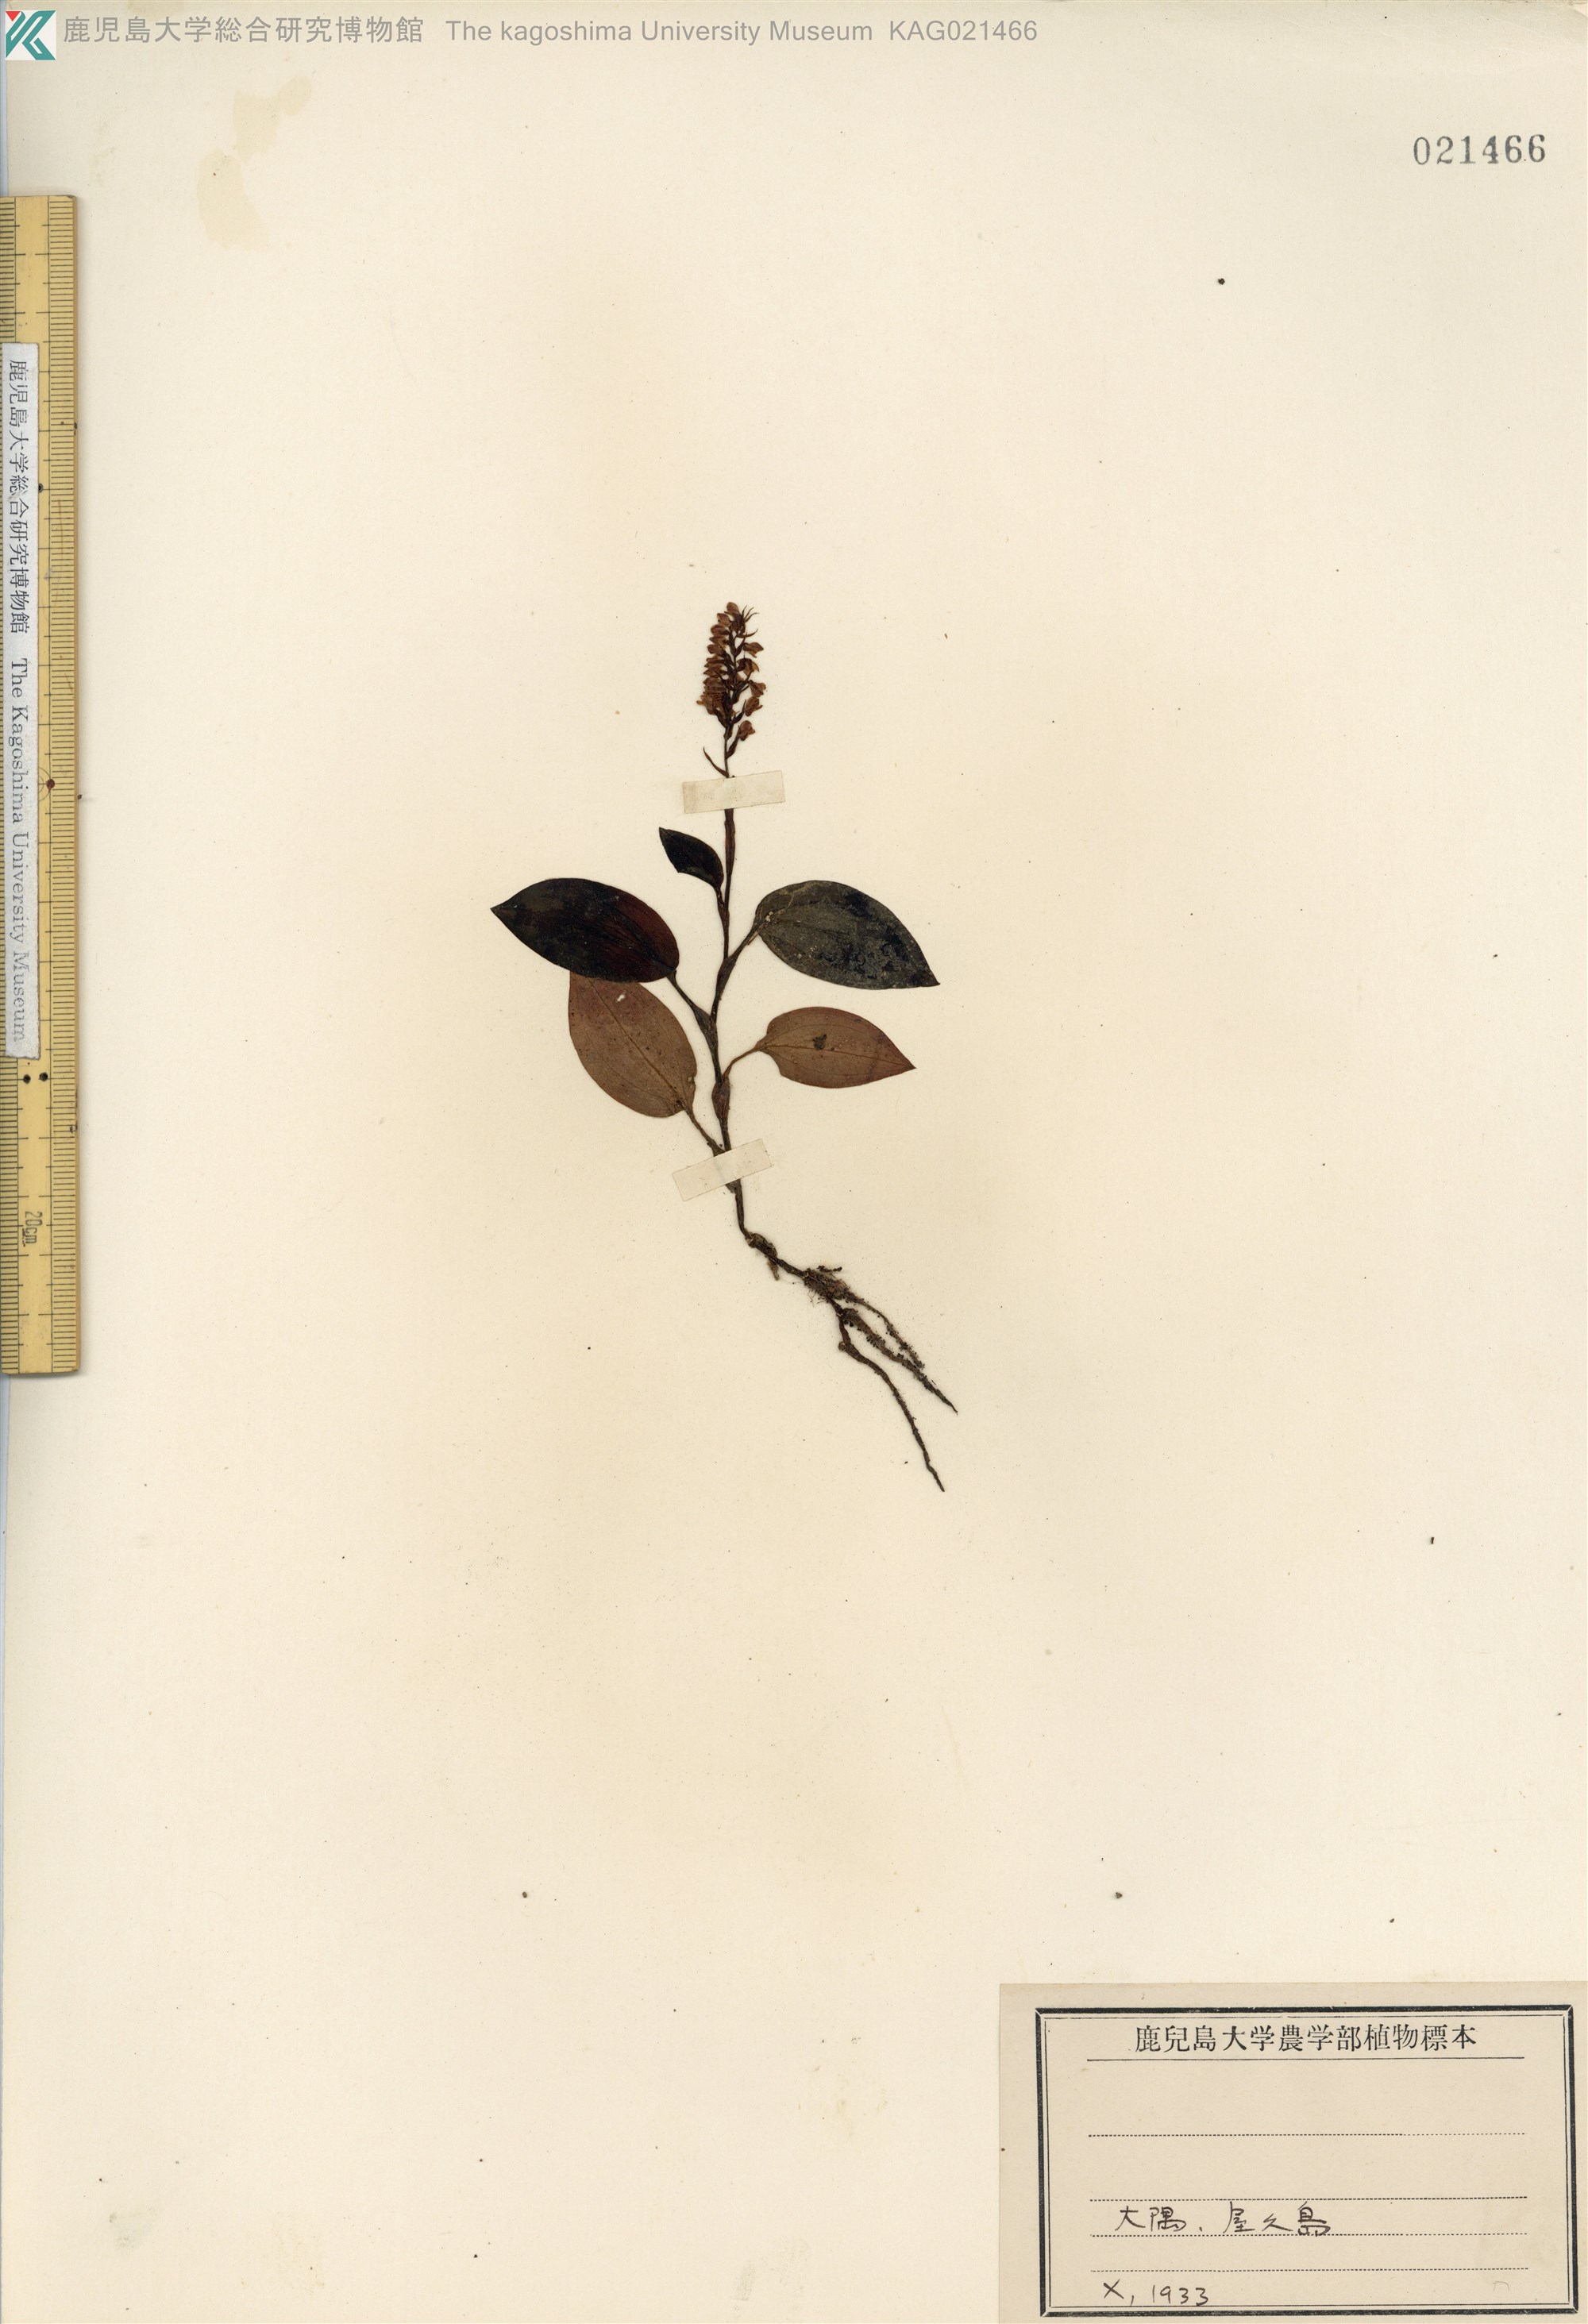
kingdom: Plantae
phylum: Tracheophyta
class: Liliopsida
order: Asparagales
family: Orchidaceae
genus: Goodyera
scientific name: Goodyera hachijoensis
